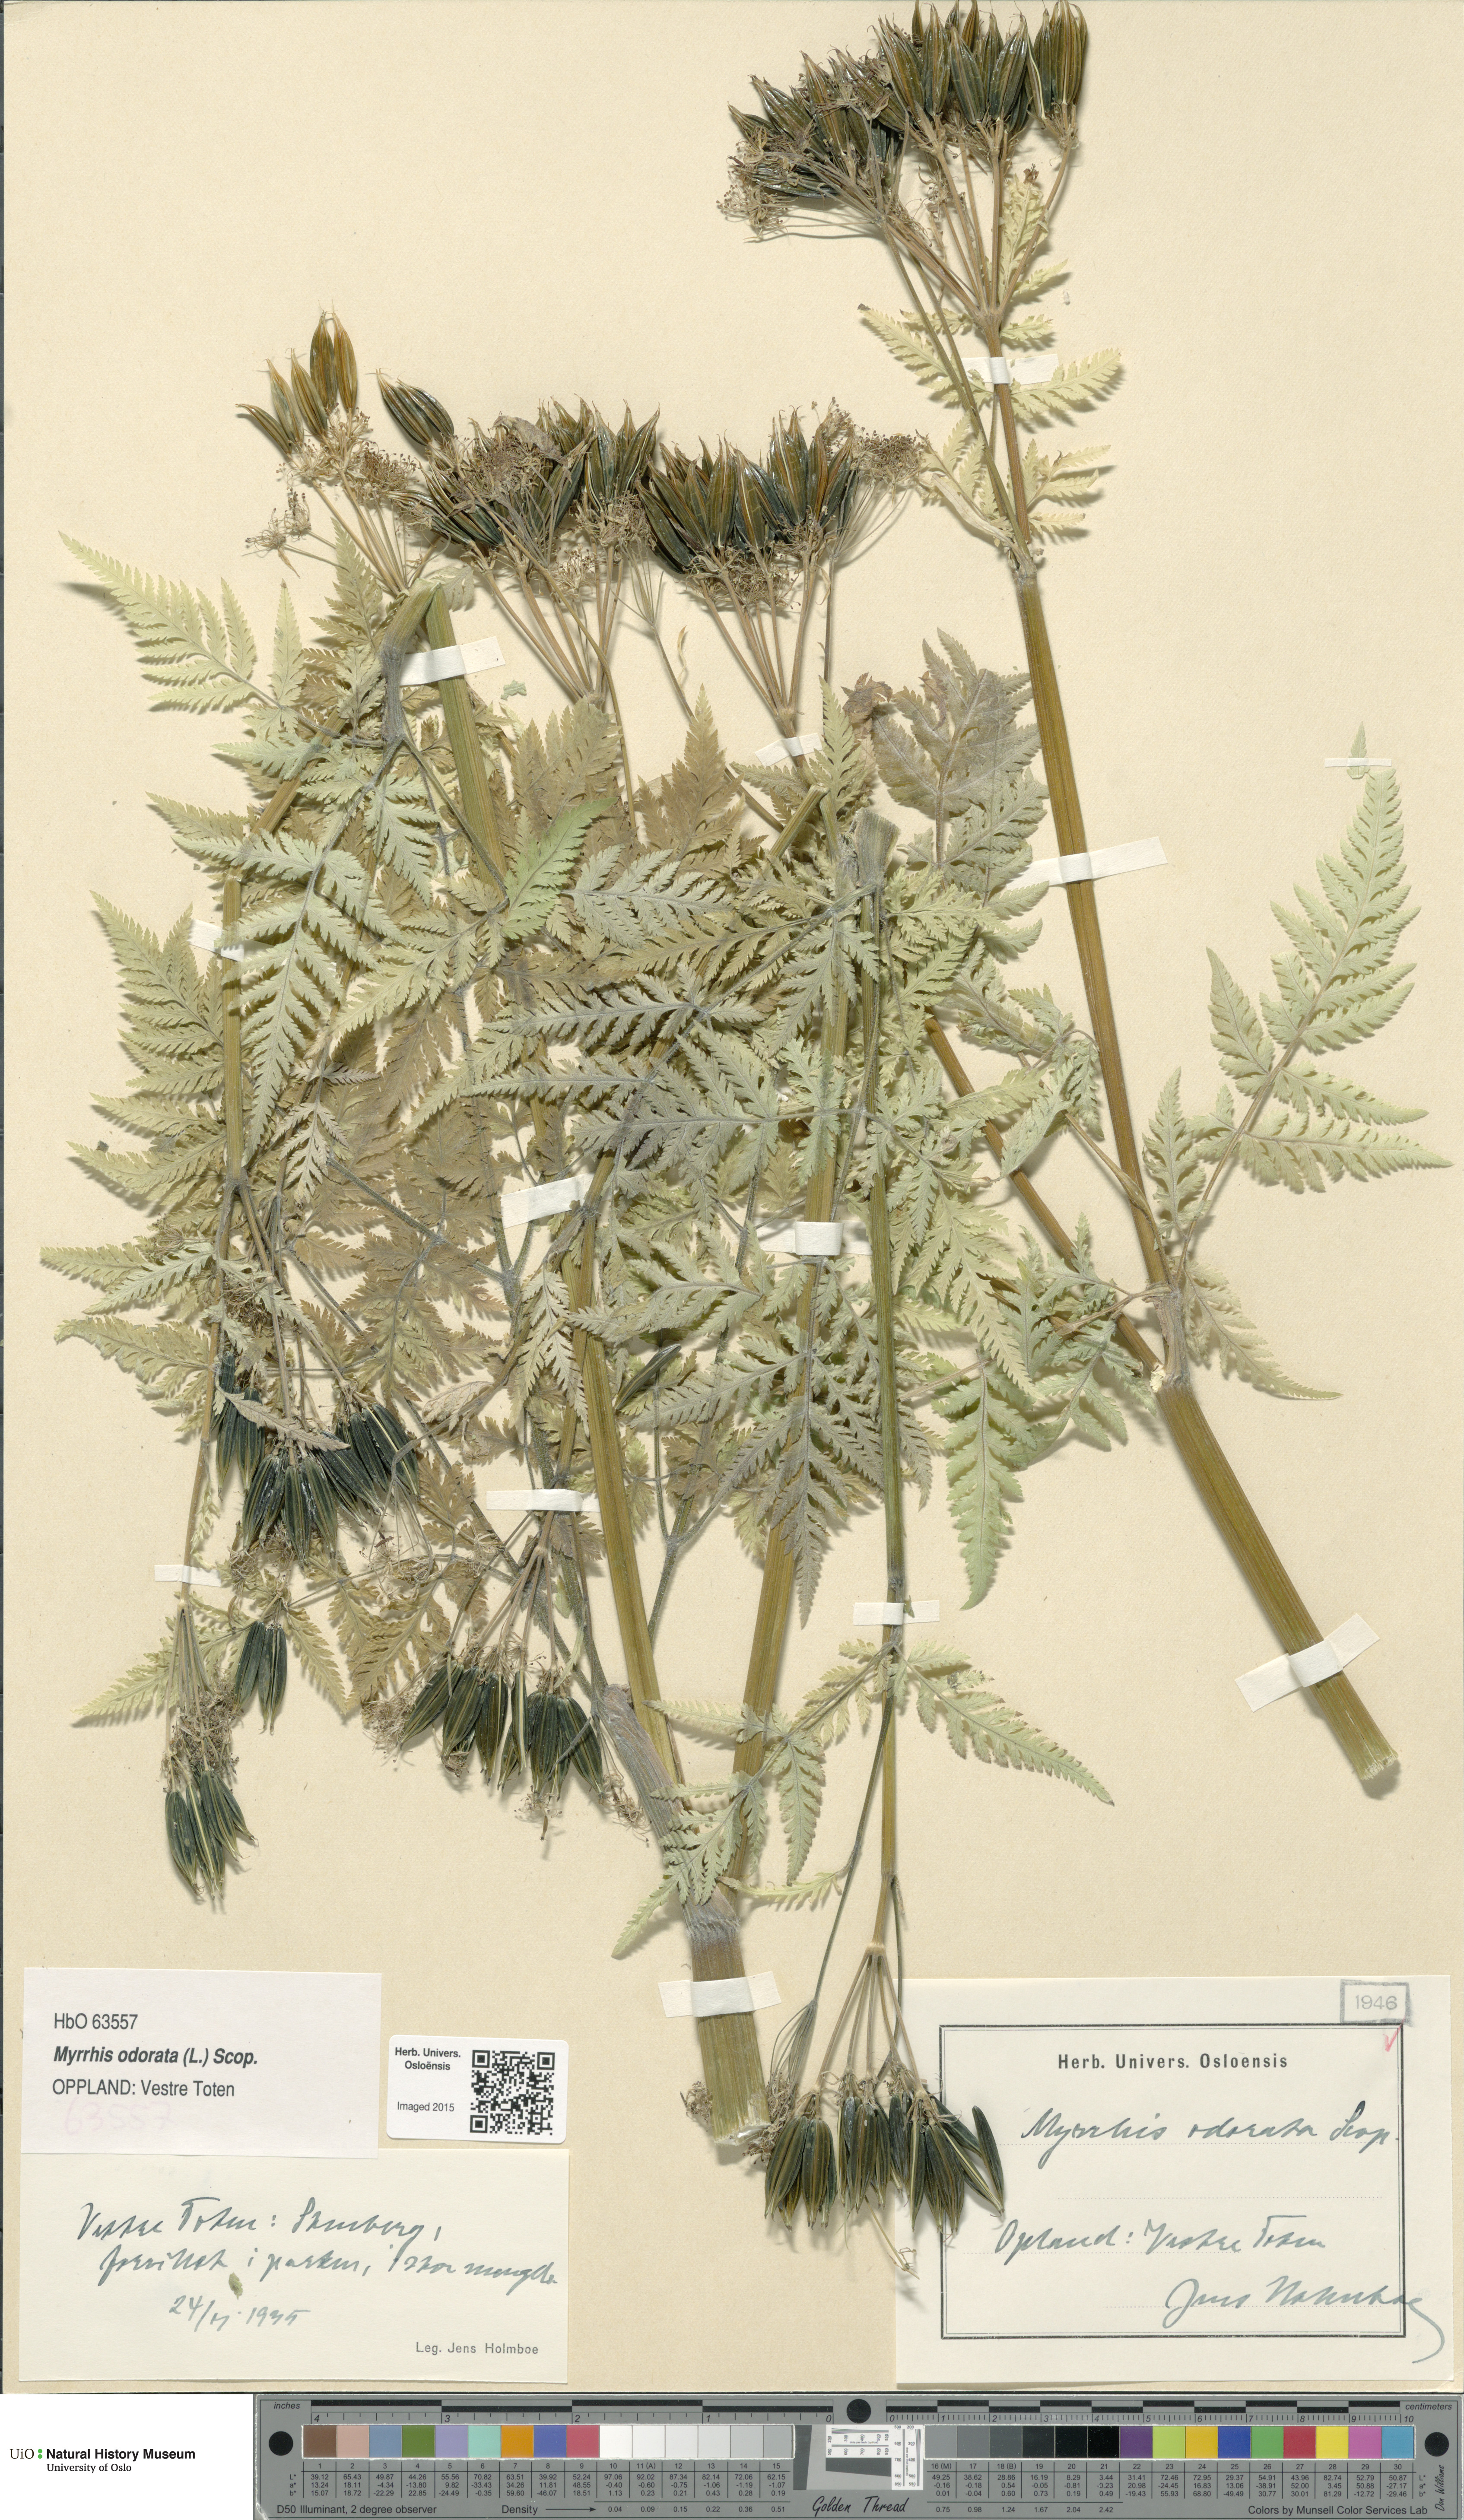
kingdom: Plantae
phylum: Tracheophyta
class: Magnoliopsida
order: Apiales
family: Apiaceae
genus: Myrrhis
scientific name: Myrrhis odorata
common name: Sweet cicely
